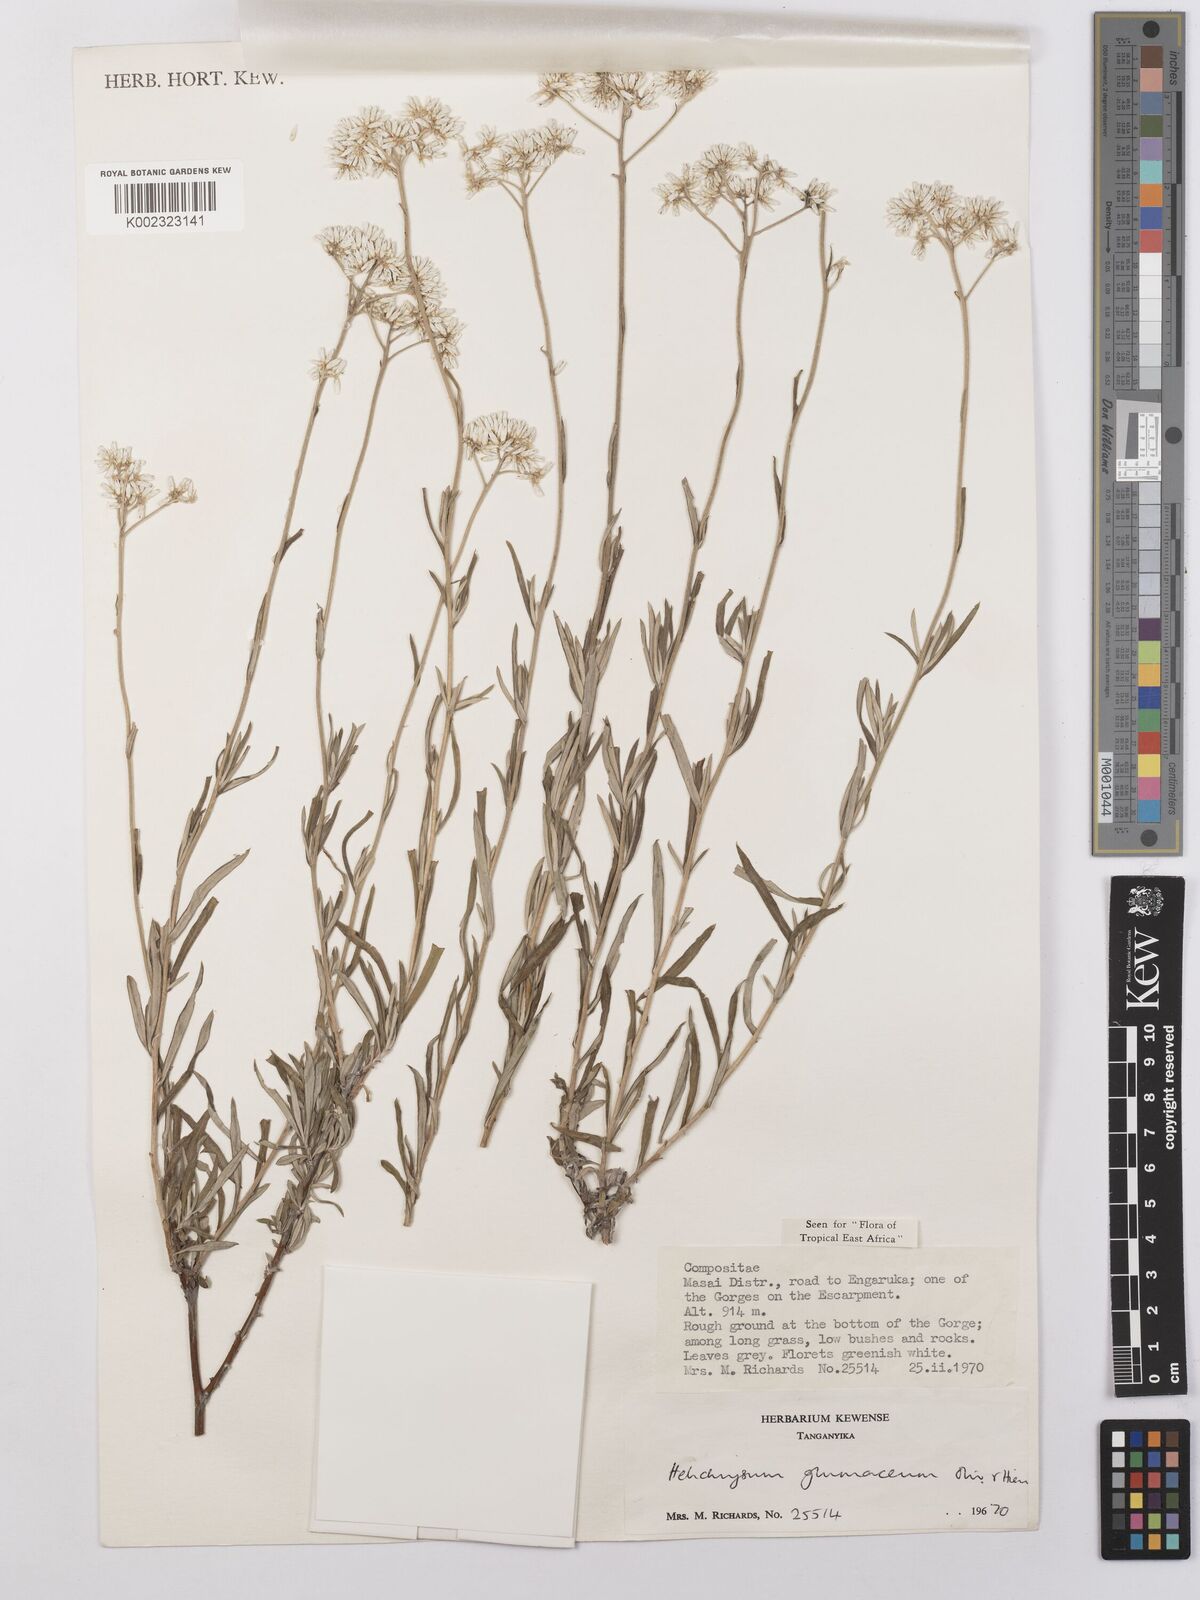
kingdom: Plantae
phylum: Tracheophyta
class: Magnoliopsida
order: Asterales
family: Asteraceae
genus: Helichrysum
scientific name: Helichrysum glumaceum
